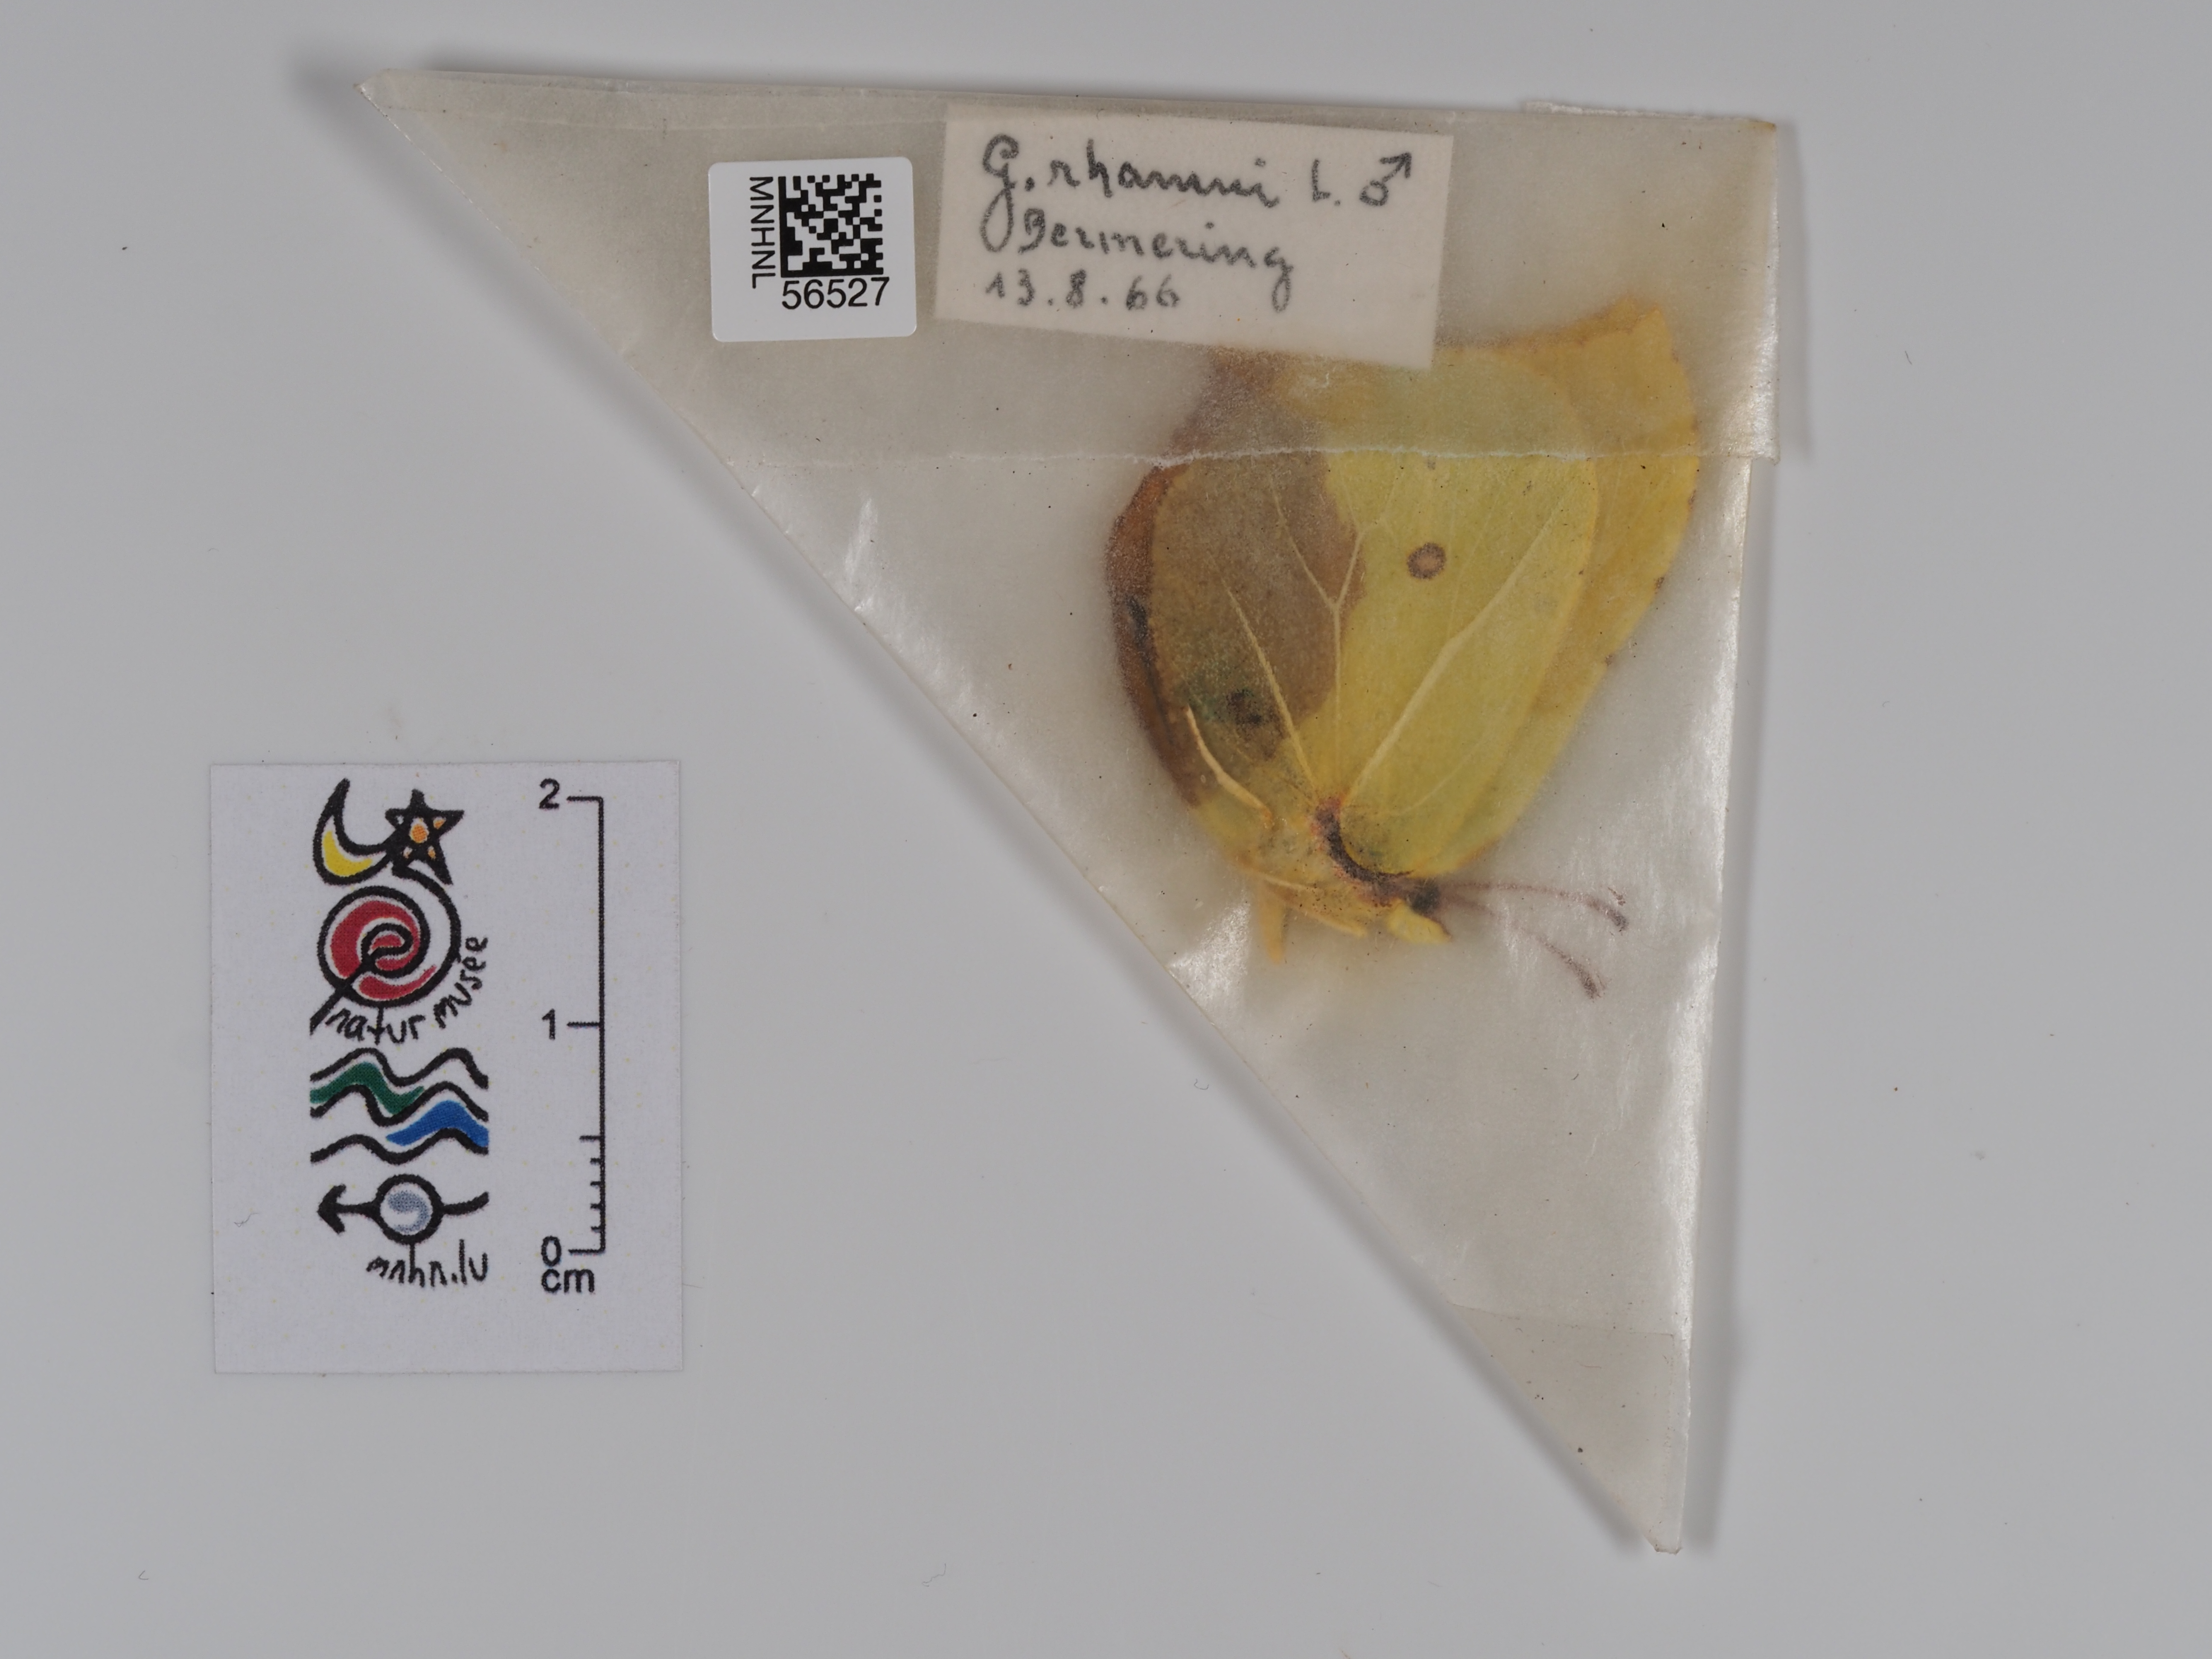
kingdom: Animalia
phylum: Arthropoda
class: Insecta
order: Lepidoptera
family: Pieridae
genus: Gonepteryx
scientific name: Gonepteryx rhamni
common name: Brimstone
